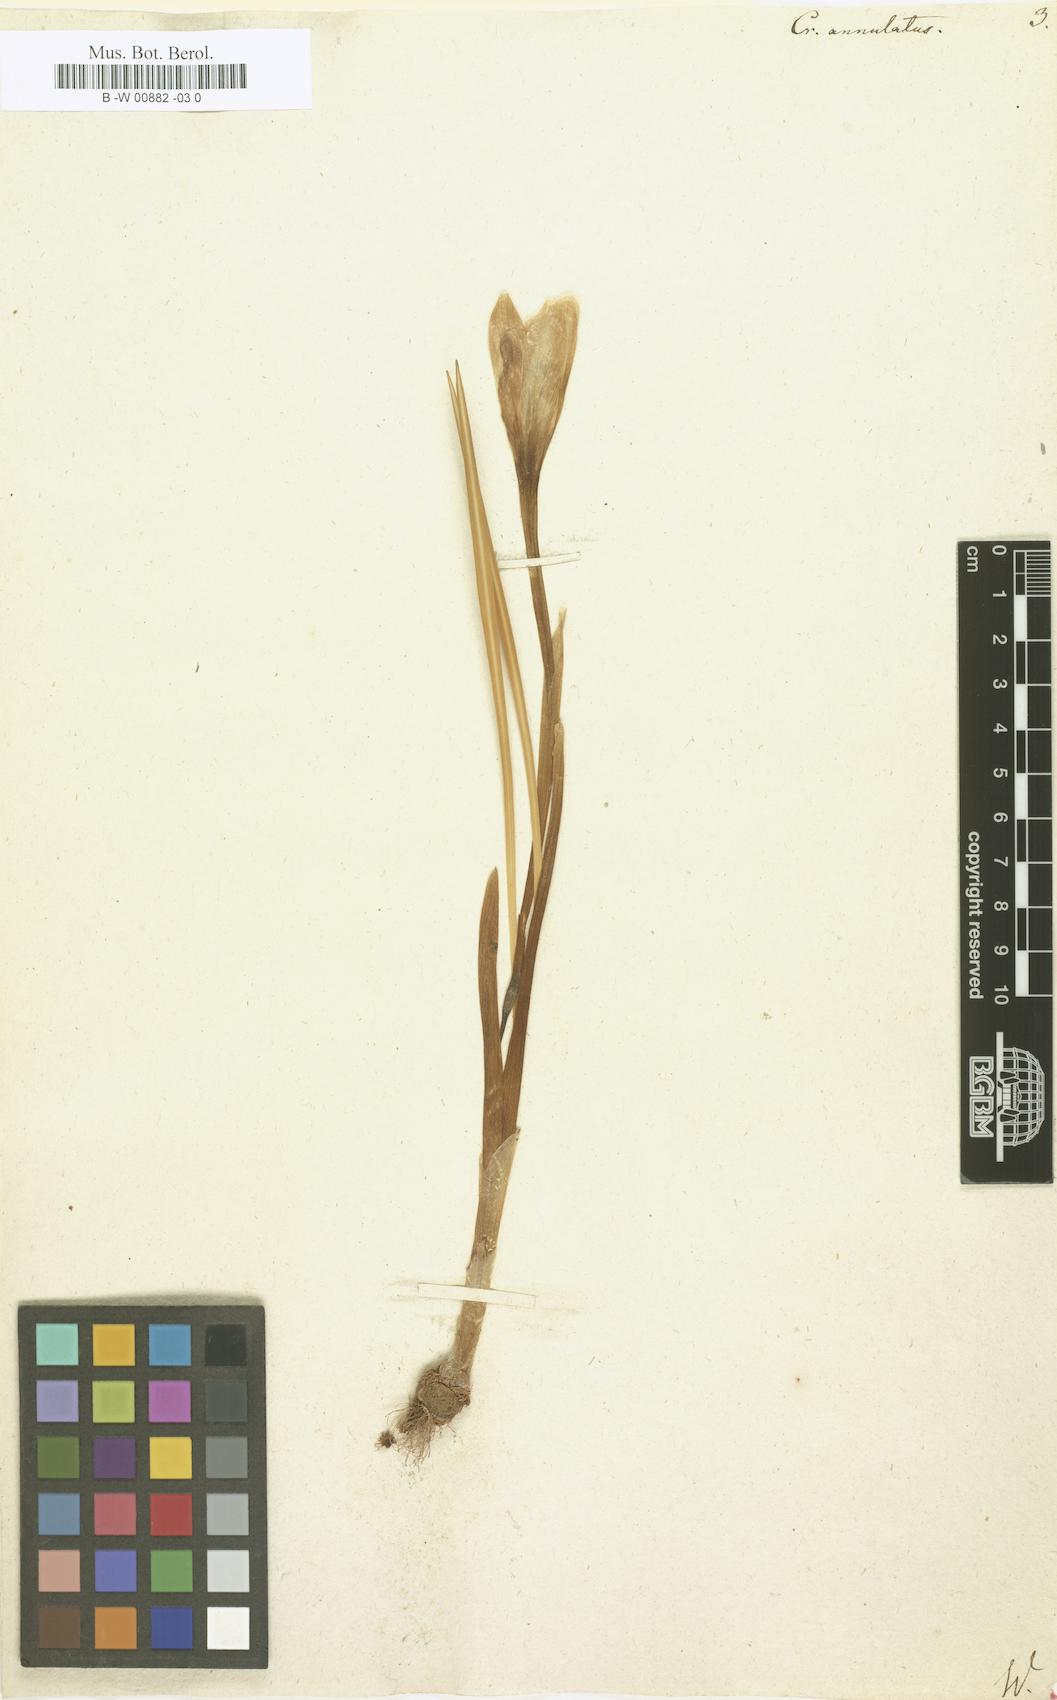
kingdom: Plantae
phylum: Tracheophyta
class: Liliopsida
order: Asparagales
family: Iridaceae
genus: Crocus
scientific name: Crocus annulatus
